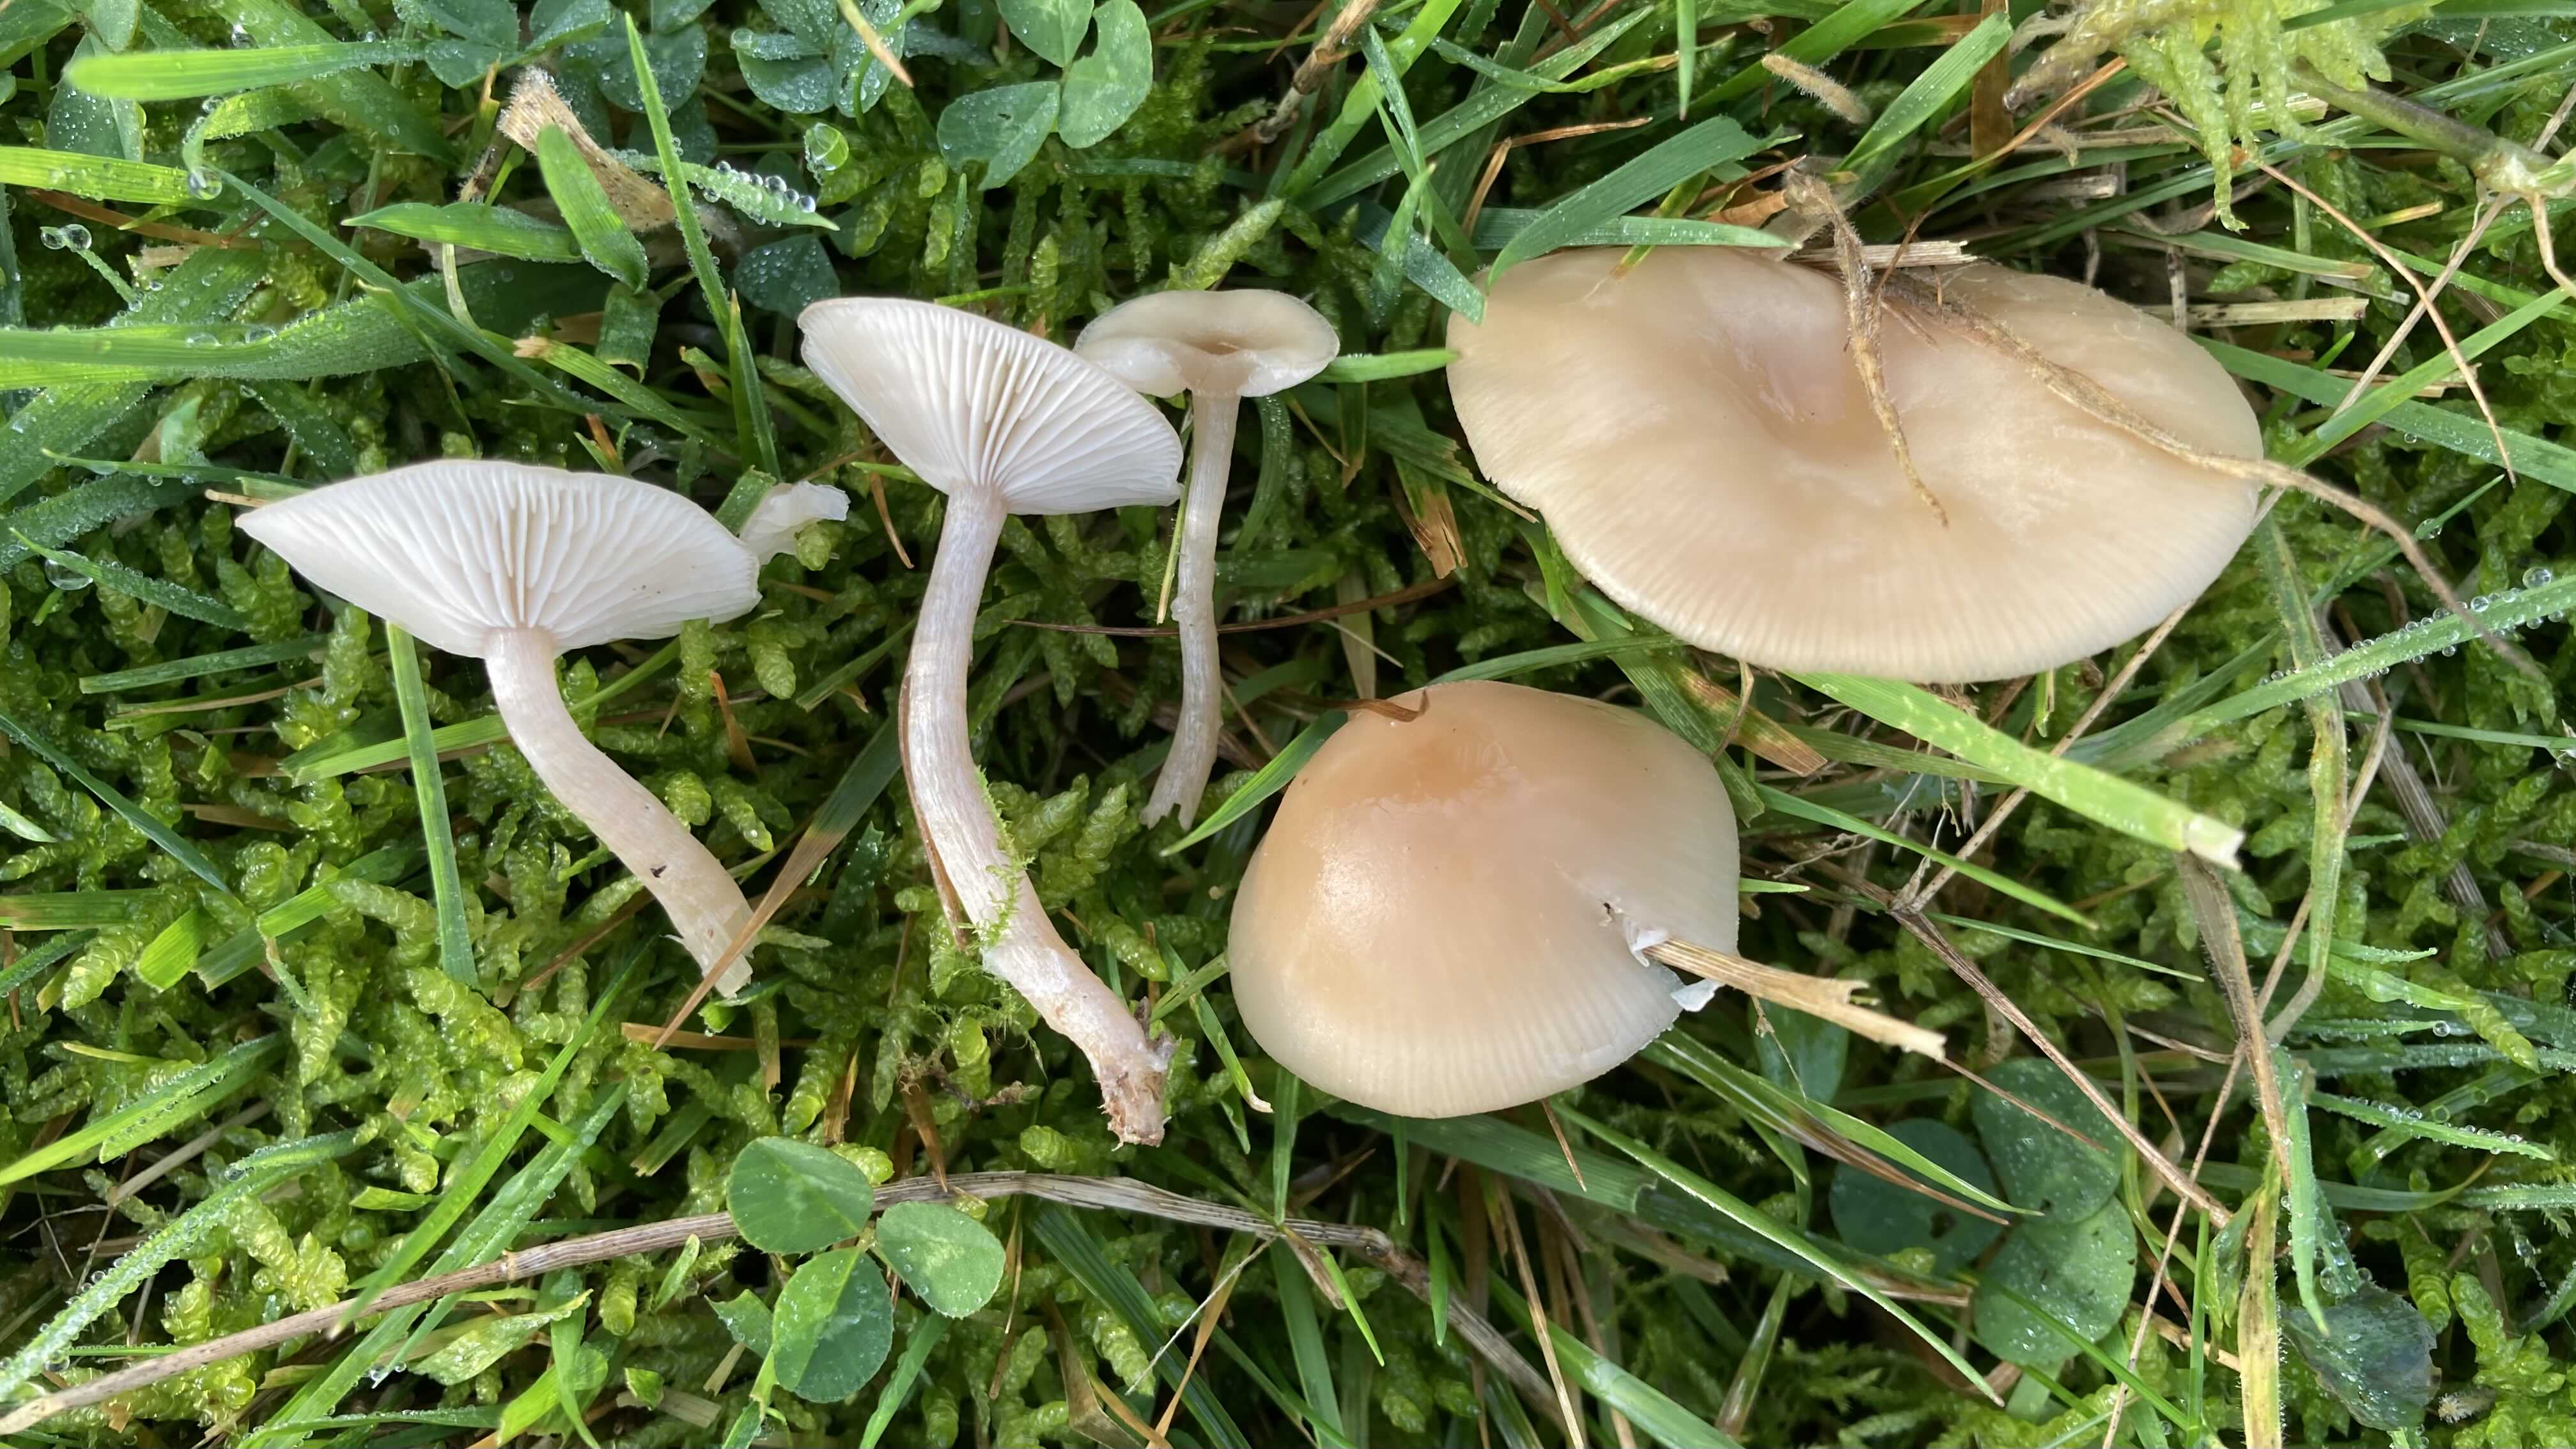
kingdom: Fungi
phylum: Basidiomycota
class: Agaricomycetes
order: Agaricales
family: Tricholomataceae
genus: Clitocybe
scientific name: Clitocybe fragrans
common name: vellugtende tragthat
